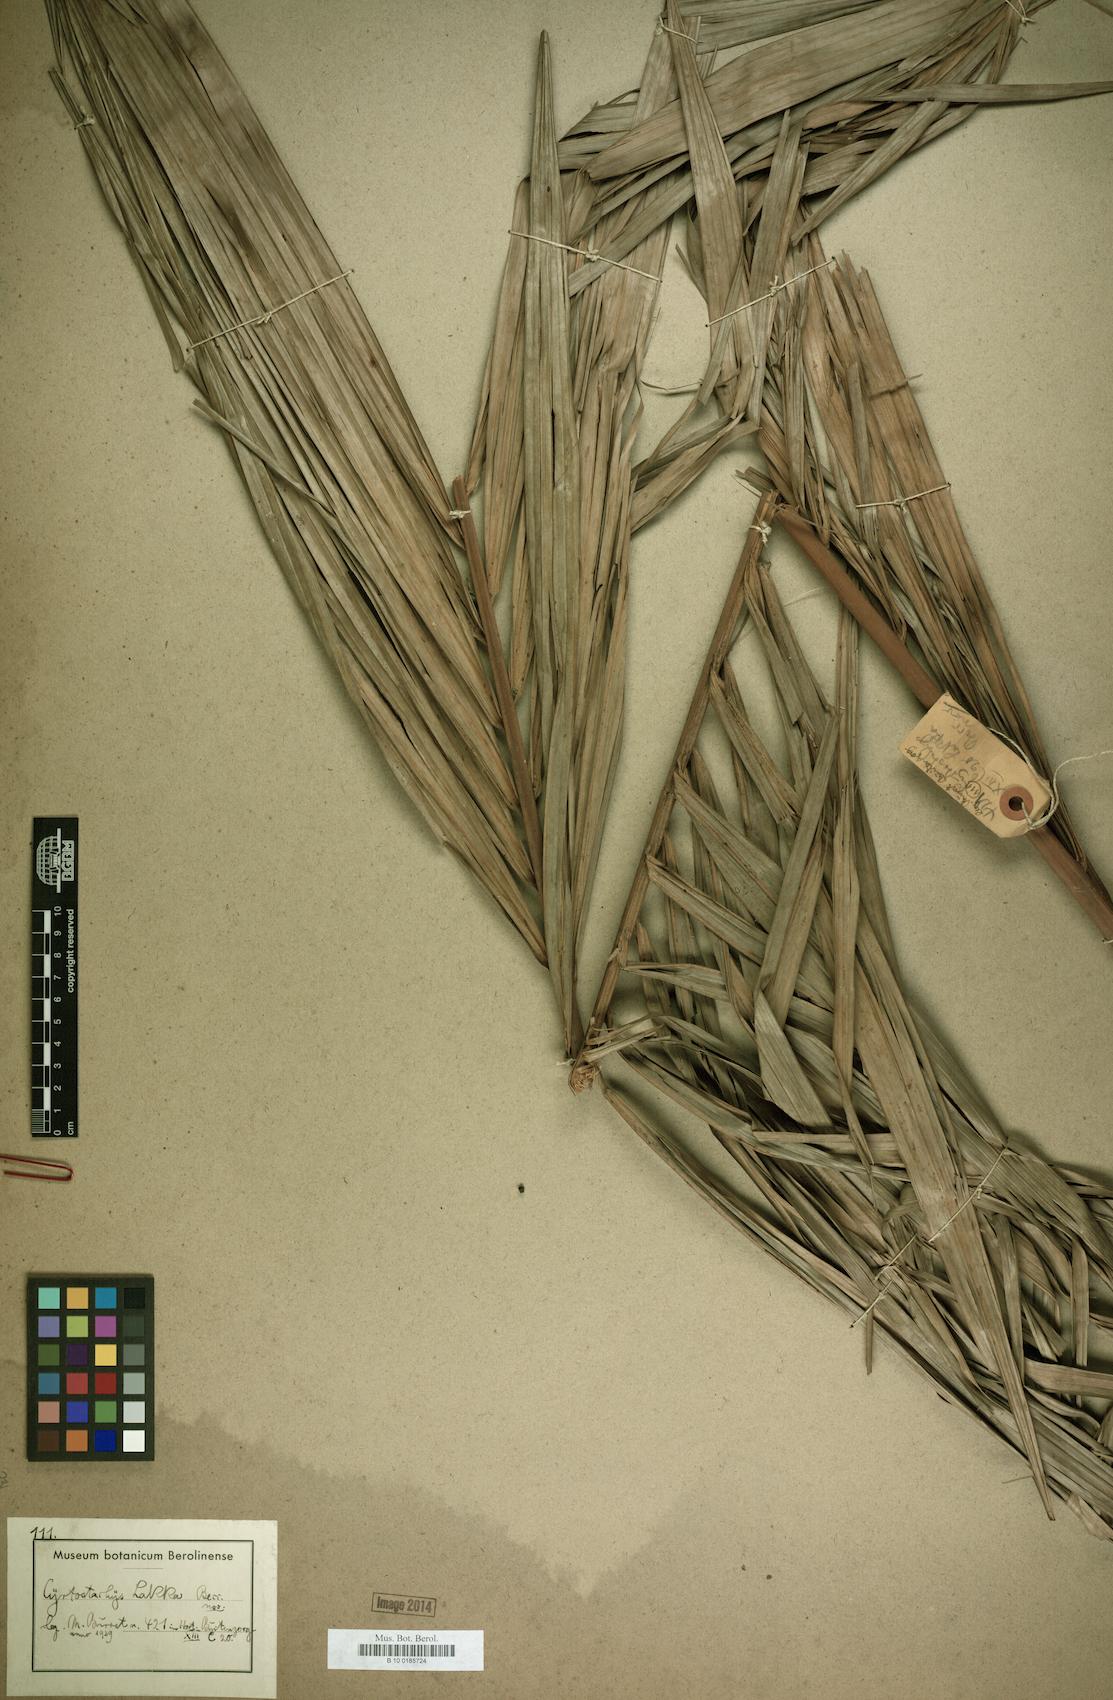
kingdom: Plantae
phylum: Tracheophyta
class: Liliopsida
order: Arecales
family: Arecaceae
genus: Cyrtostachys
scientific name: Cyrtostachys renda
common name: Lipstick palm
